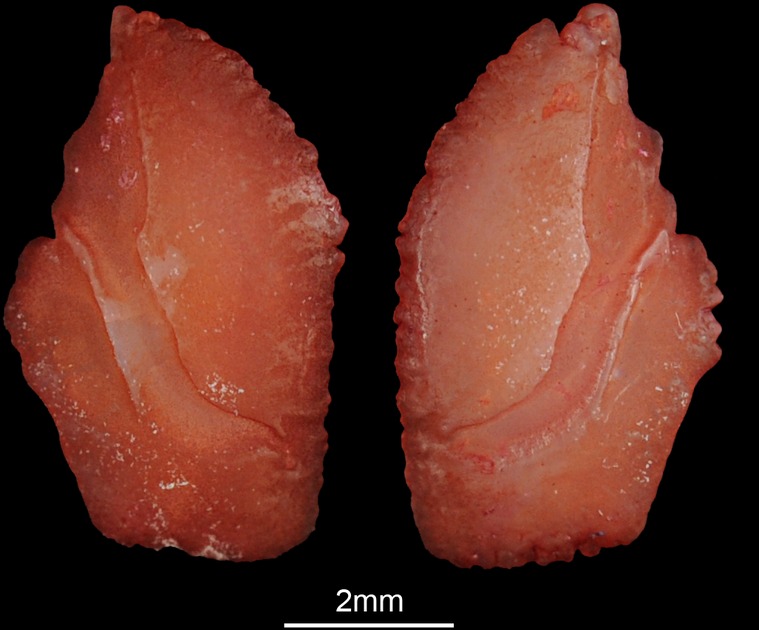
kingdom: Animalia
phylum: Chordata
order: Perciformes
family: Sparidae
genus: Rhabdosargus
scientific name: Rhabdosargus holubi
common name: Cape stumpnose
